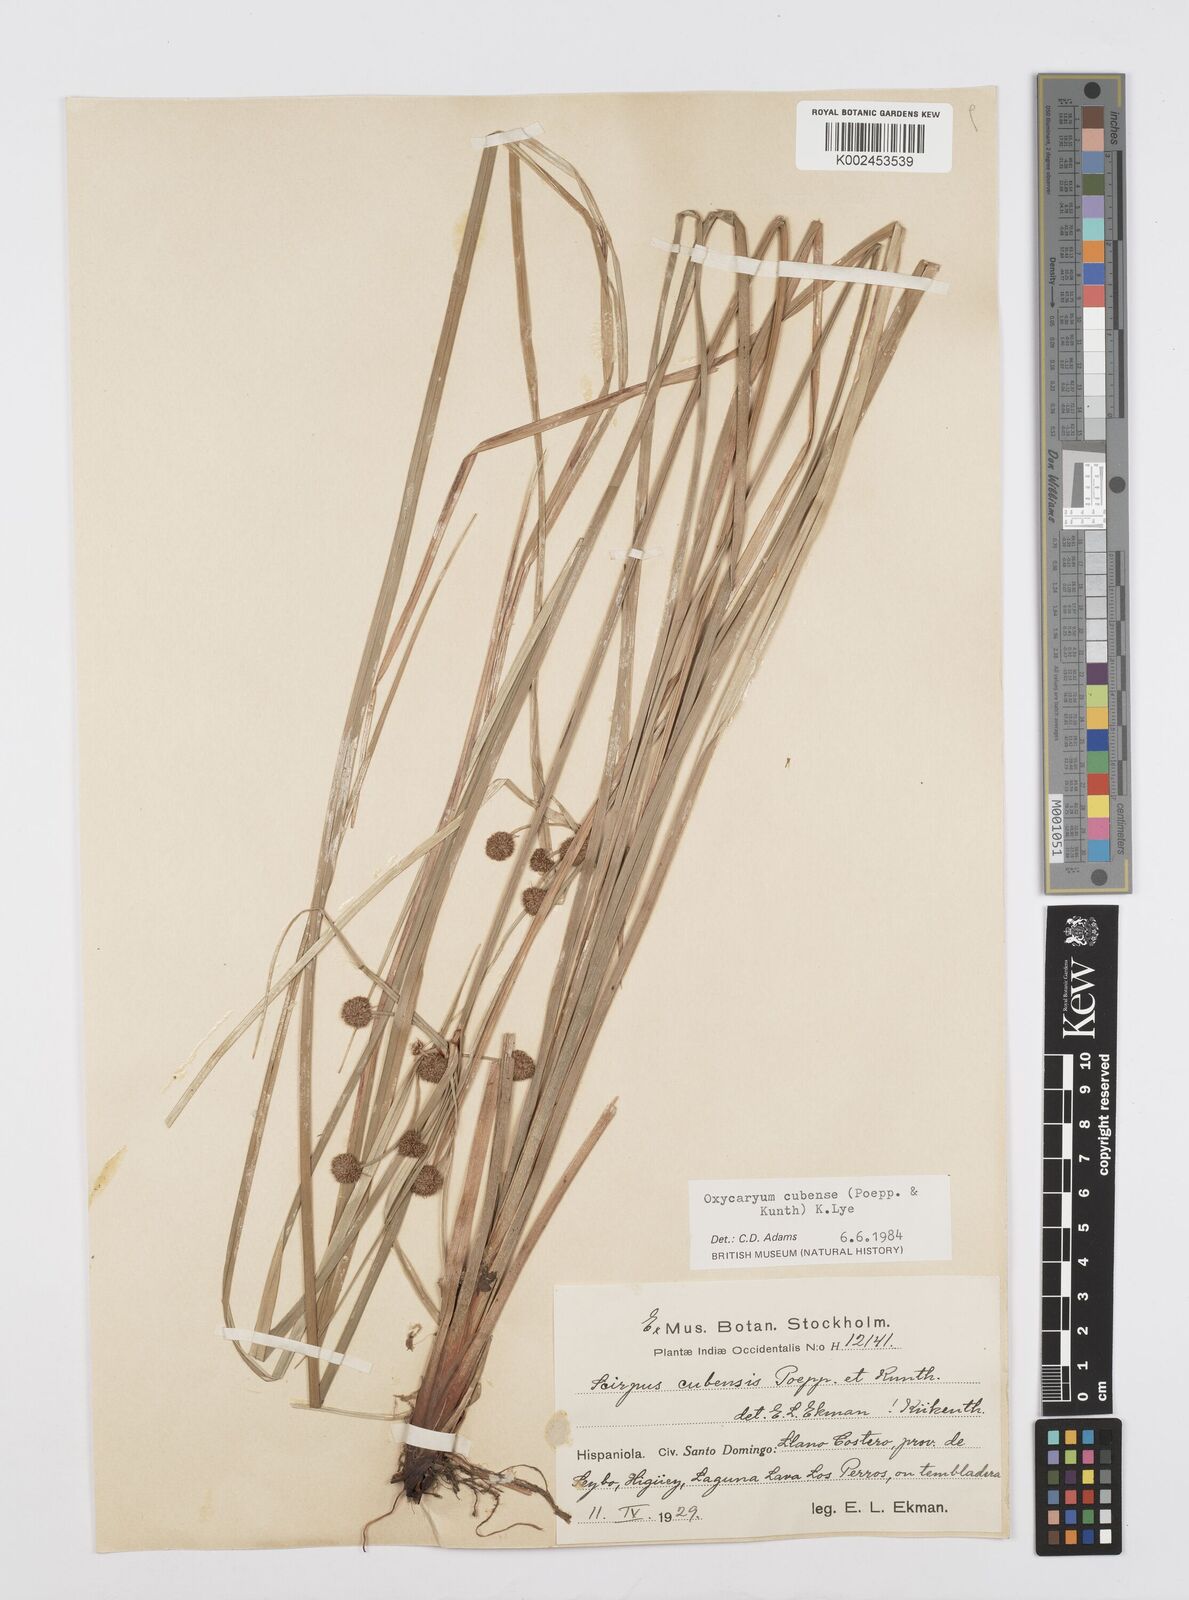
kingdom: Plantae
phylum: Tracheophyta
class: Liliopsida
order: Poales
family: Cyperaceae
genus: Cyperus
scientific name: Cyperus elegans
